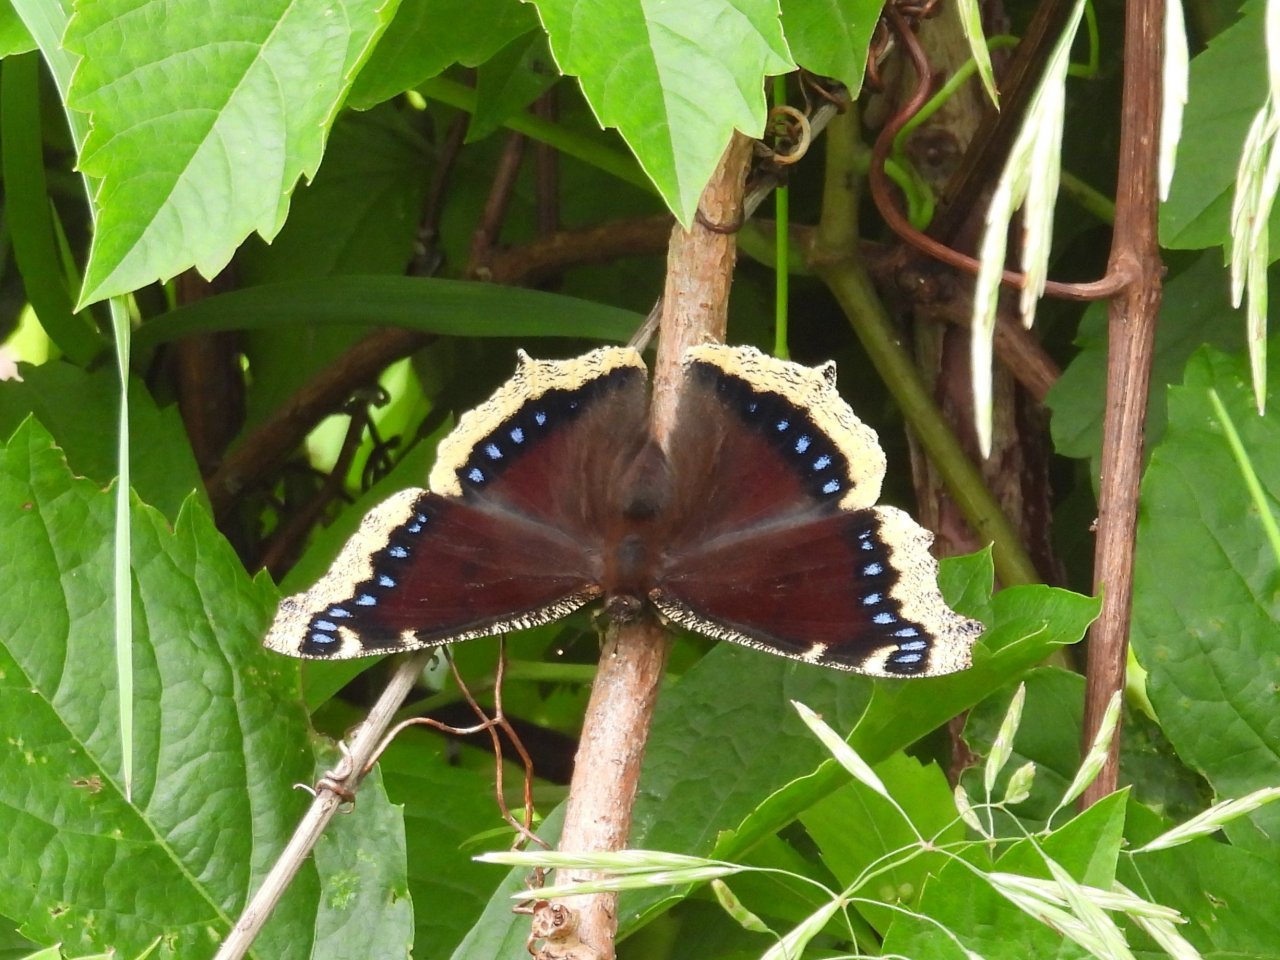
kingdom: Animalia
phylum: Arthropoda
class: Insecta
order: Lepidoptera
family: Nymphalidae
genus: Nymphalis
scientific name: Nymphalis antiopa
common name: Mourning Cloak
